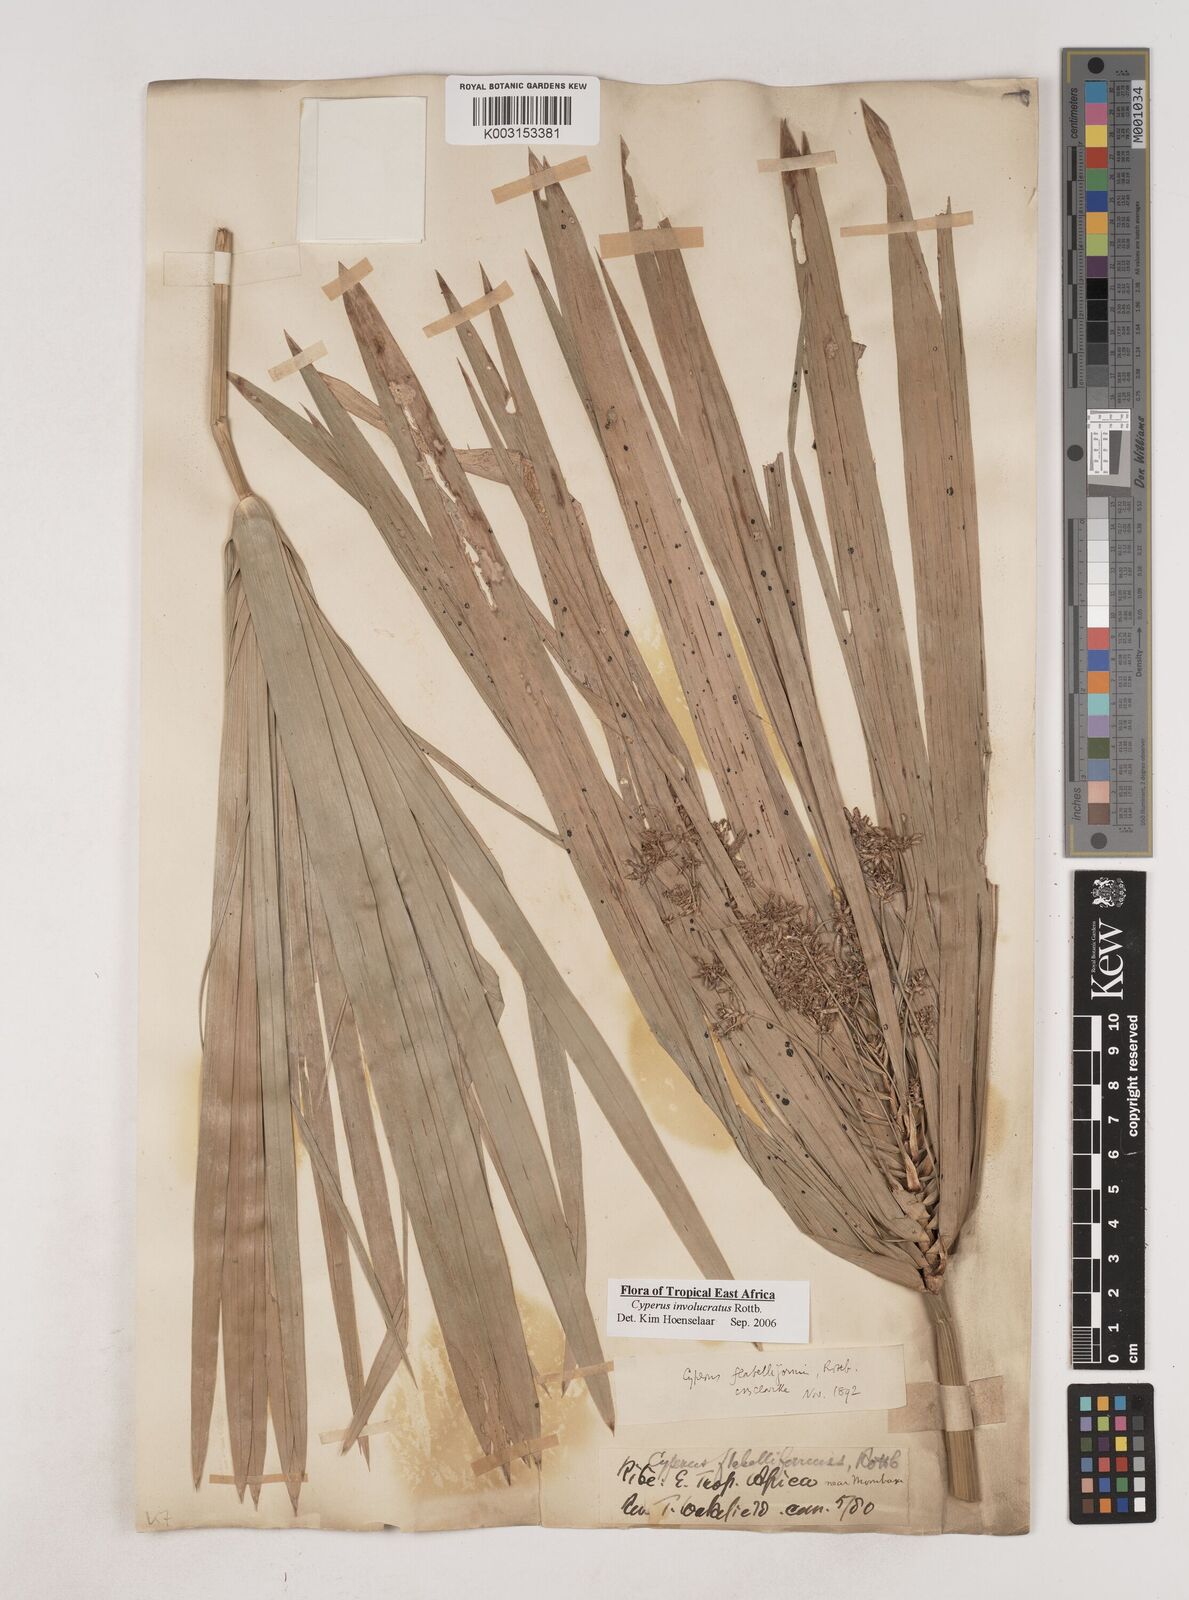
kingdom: Plantae
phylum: Tracheophyta
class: Liliopsida
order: Poales
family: Cyperaceae
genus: Cyperus
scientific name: Cyperus alternifolius
